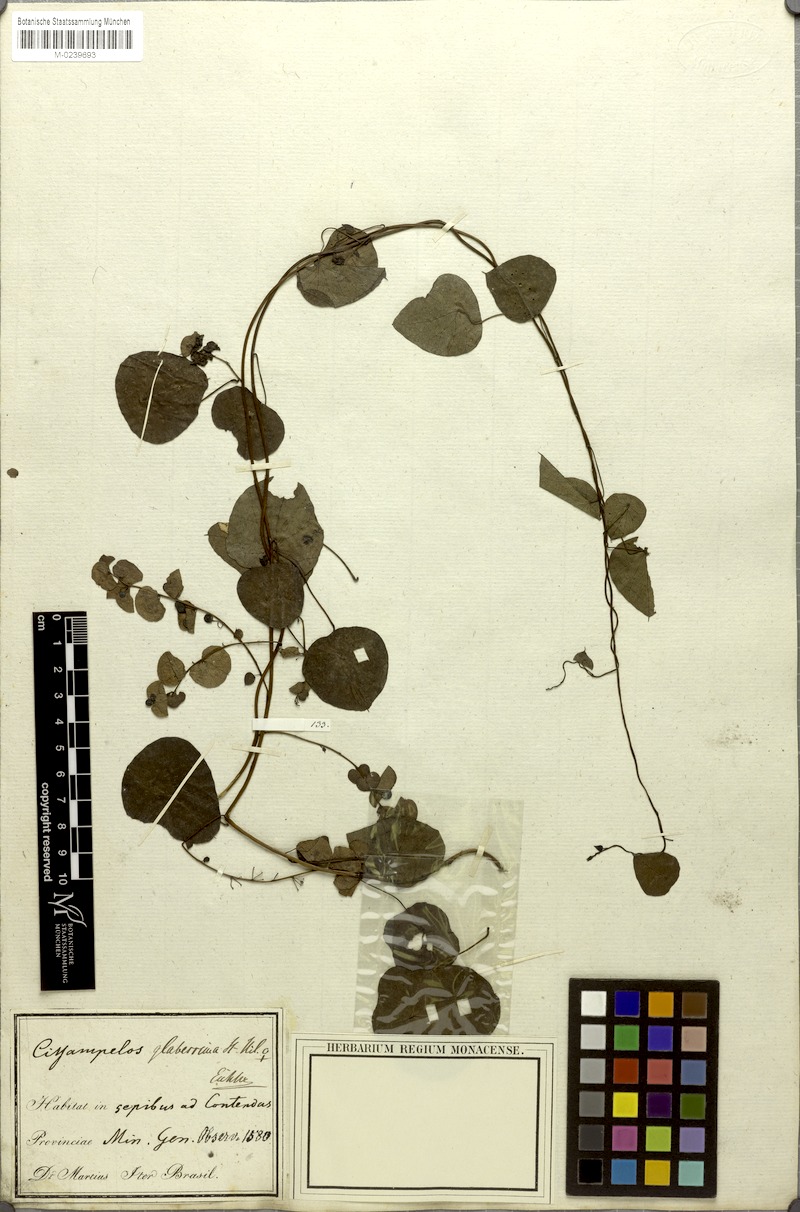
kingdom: Plantae
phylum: Tracheophyta
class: Magnoliopsida
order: Ranunculales
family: Menispermaceae
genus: Cissampelos
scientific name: Cissampelos glaberrima
